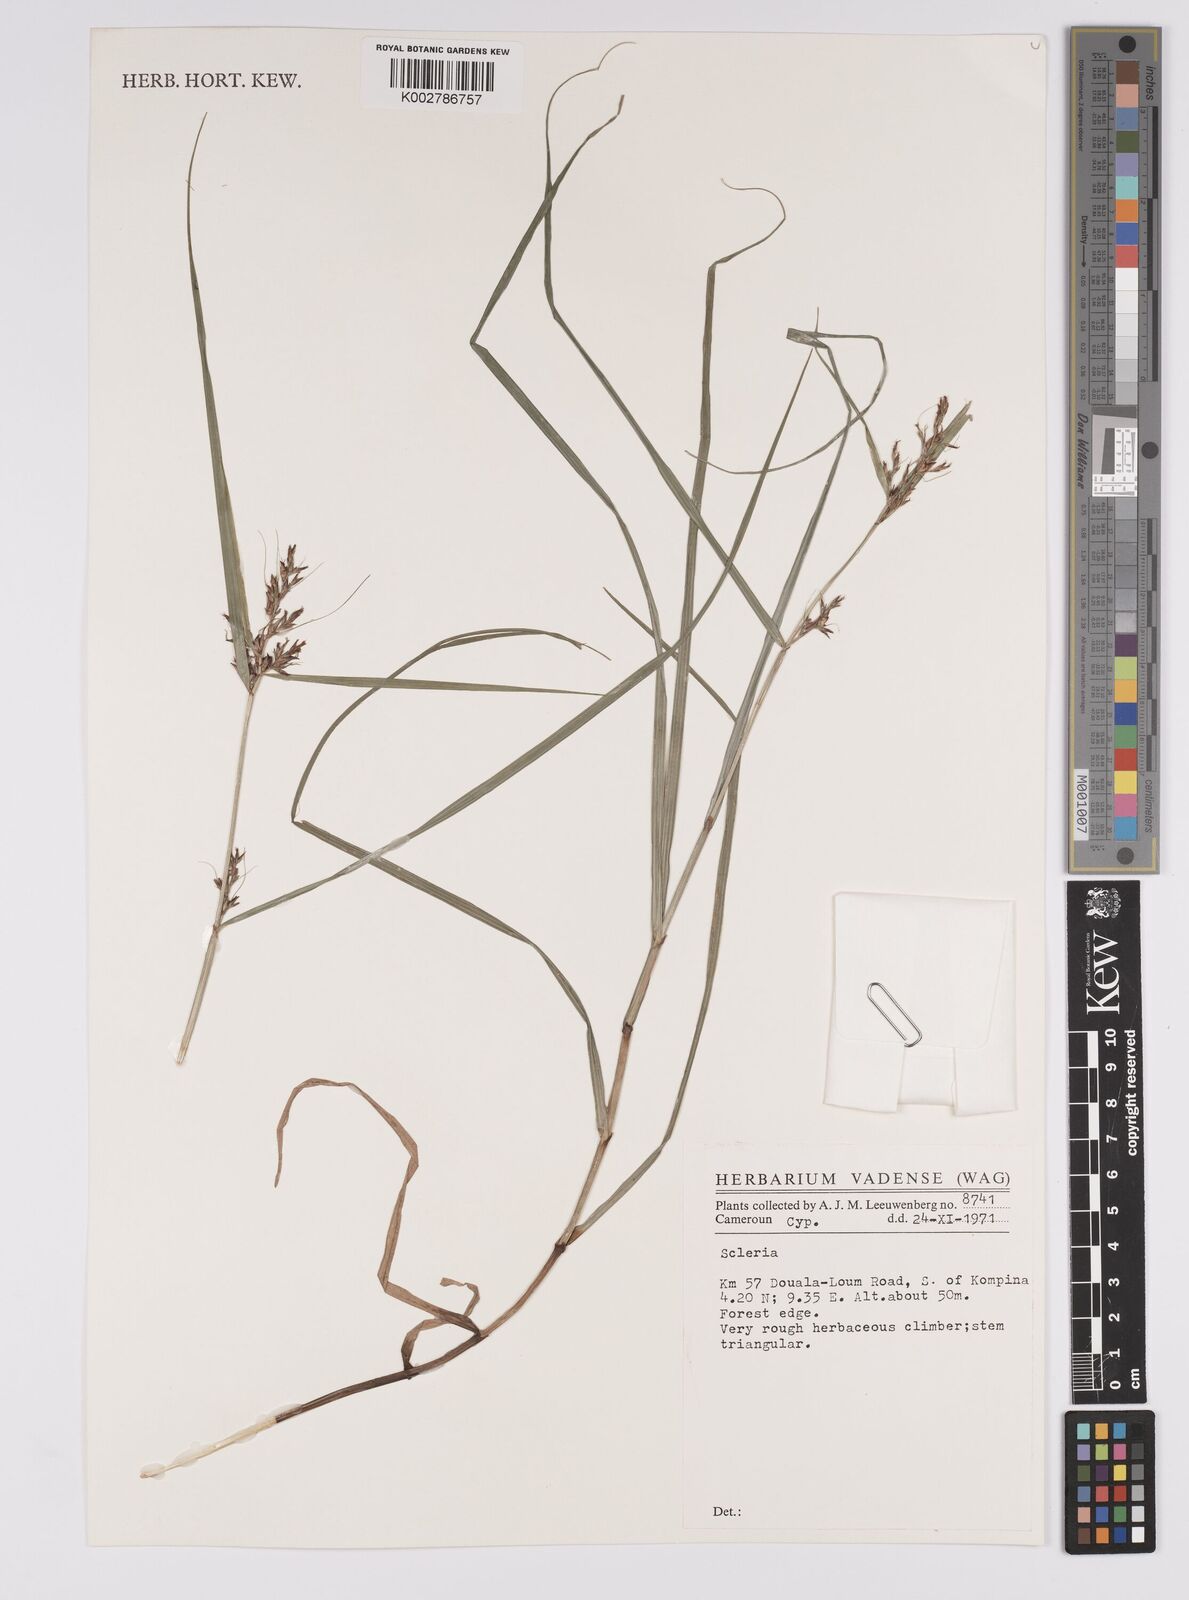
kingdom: Plantae
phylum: Tracheophyta
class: Liliopsida
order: Poales
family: Cyperaceae
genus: Scleria
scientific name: Scleria
